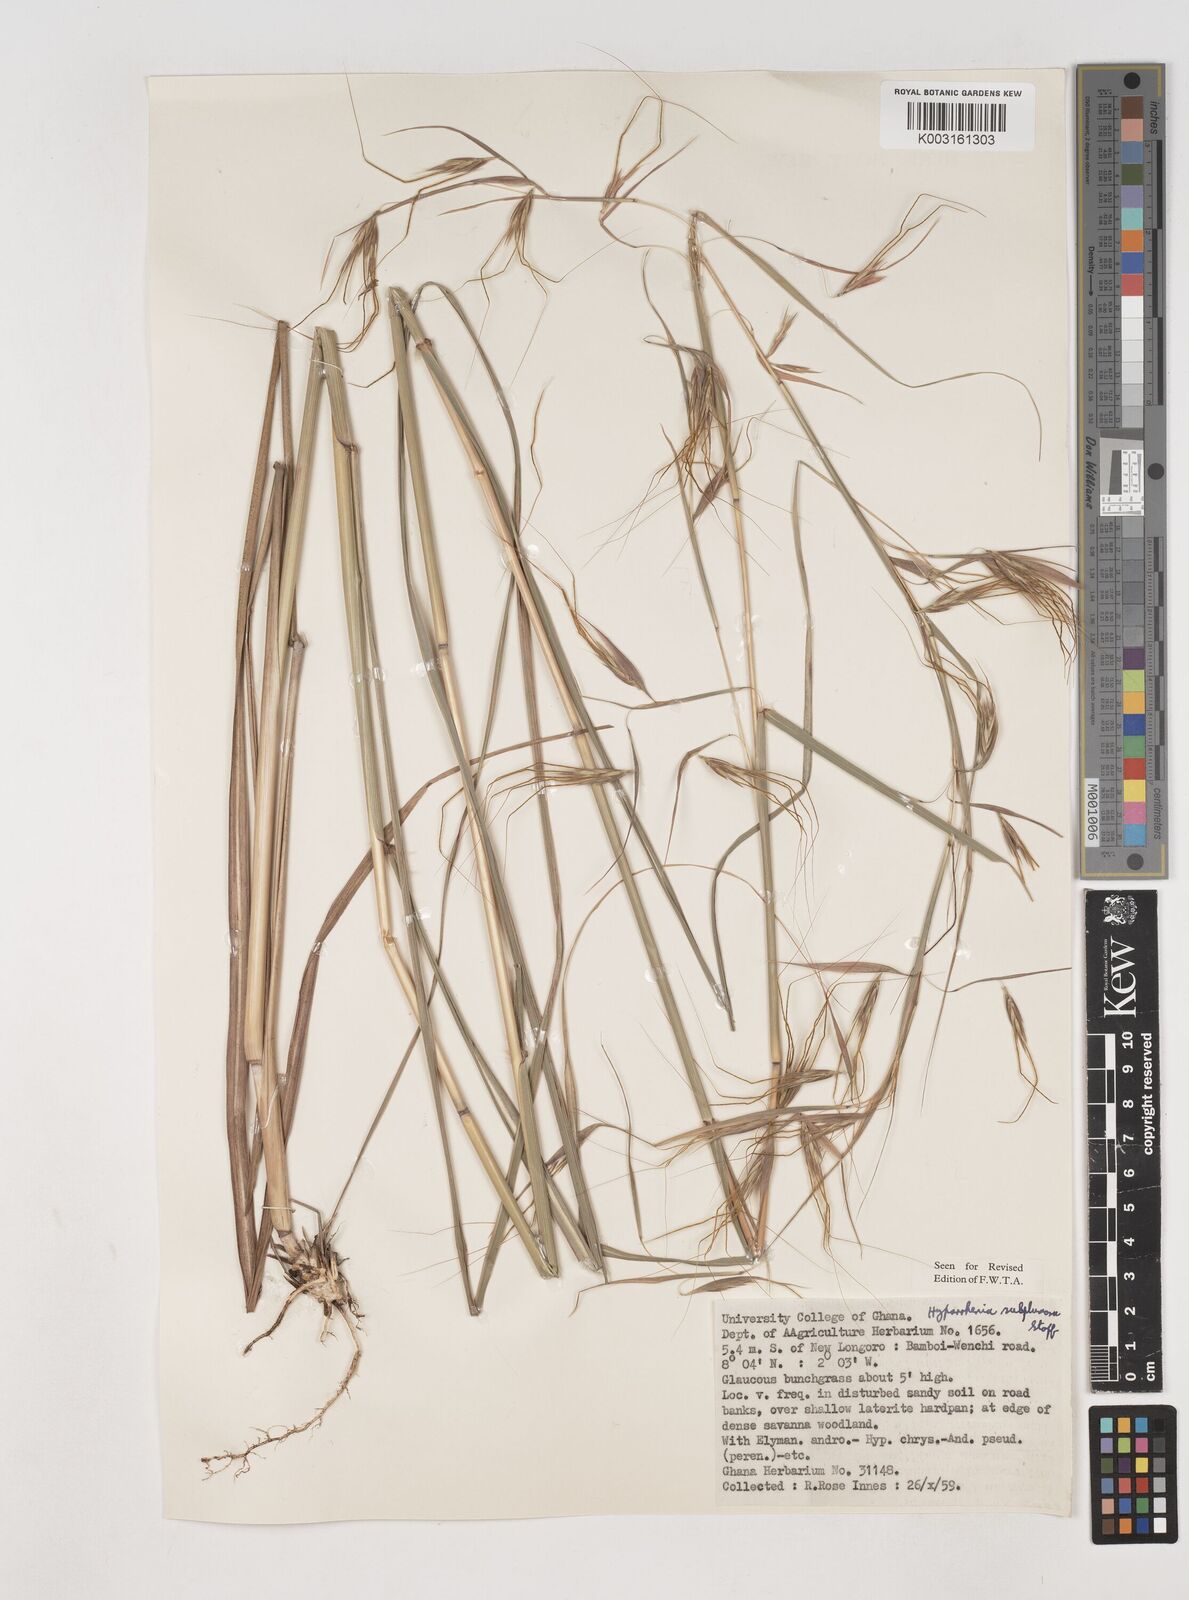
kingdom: Plantae
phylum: Tracheophyta
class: Liliopsida
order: Poales
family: Poaceae
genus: Hyparrhenia
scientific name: Hyparrhenia subplumosa
